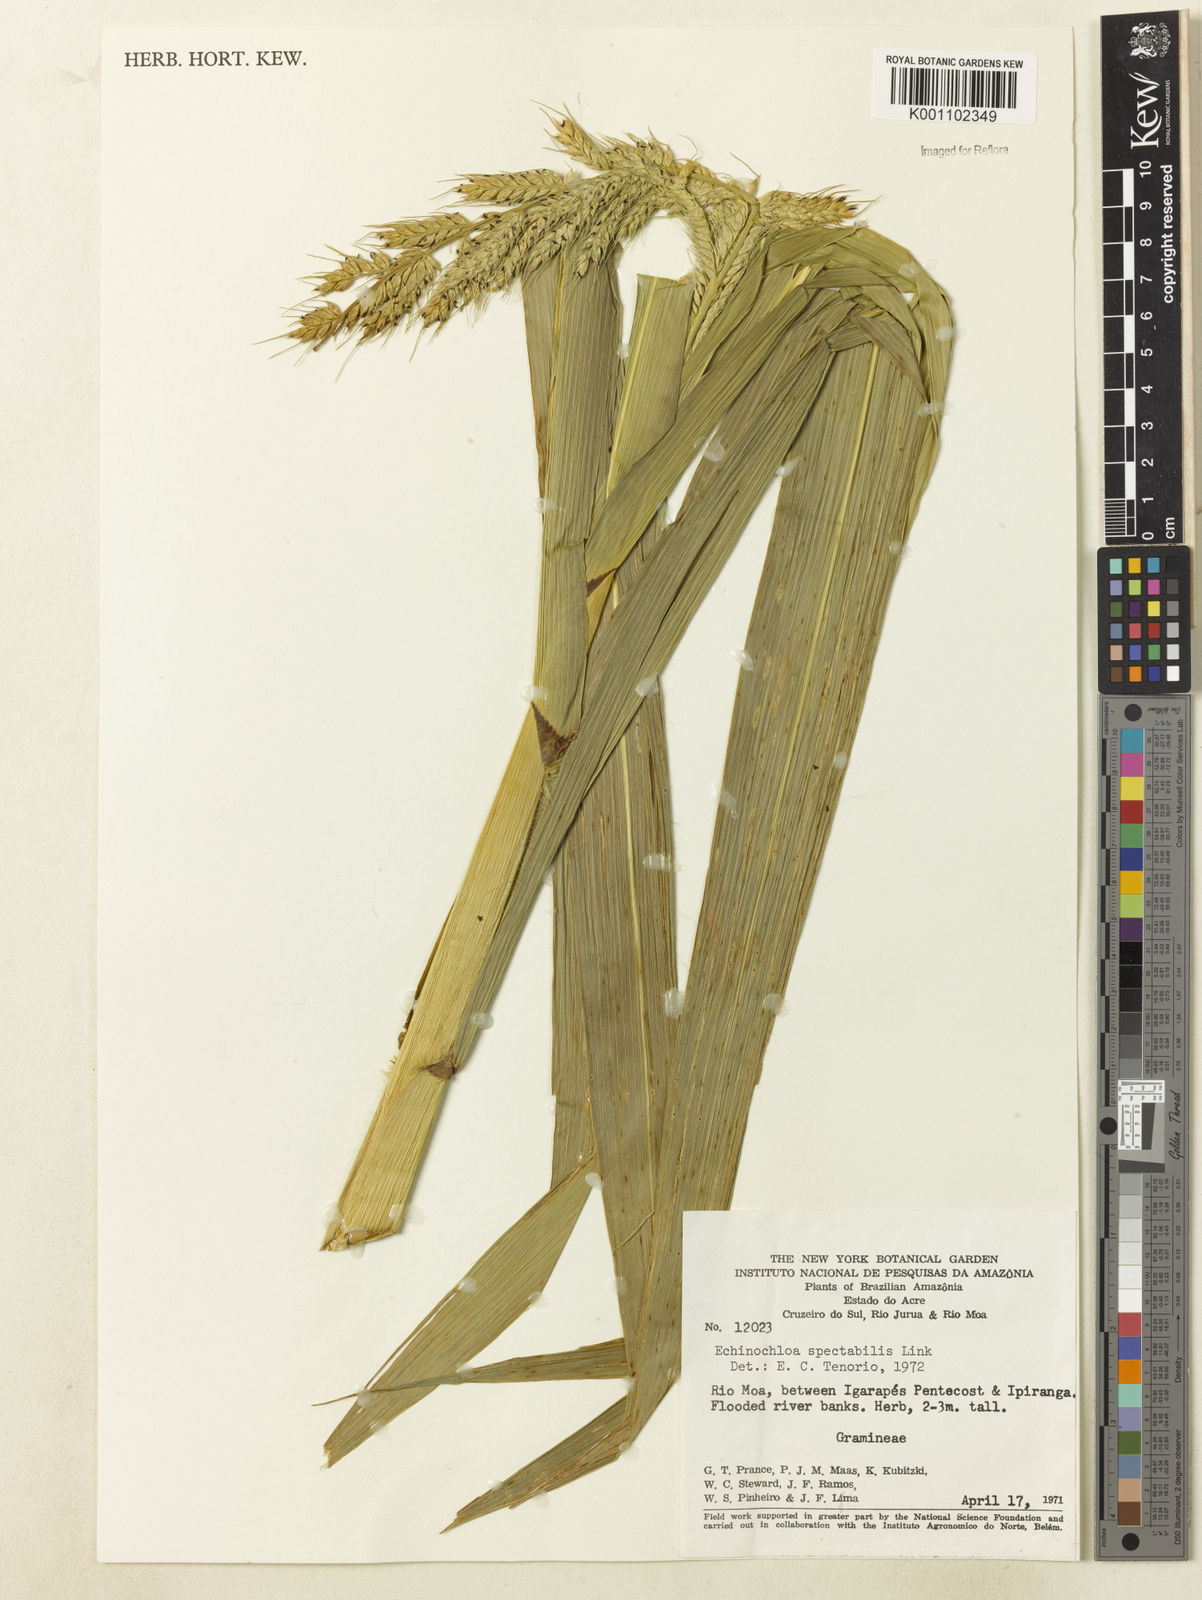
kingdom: Plantae
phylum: Tracheophyta
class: Liliopsida
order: Poales
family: Poaceae
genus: Echinochloa
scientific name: Echinochloa polystachya
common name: Creeping river grass
